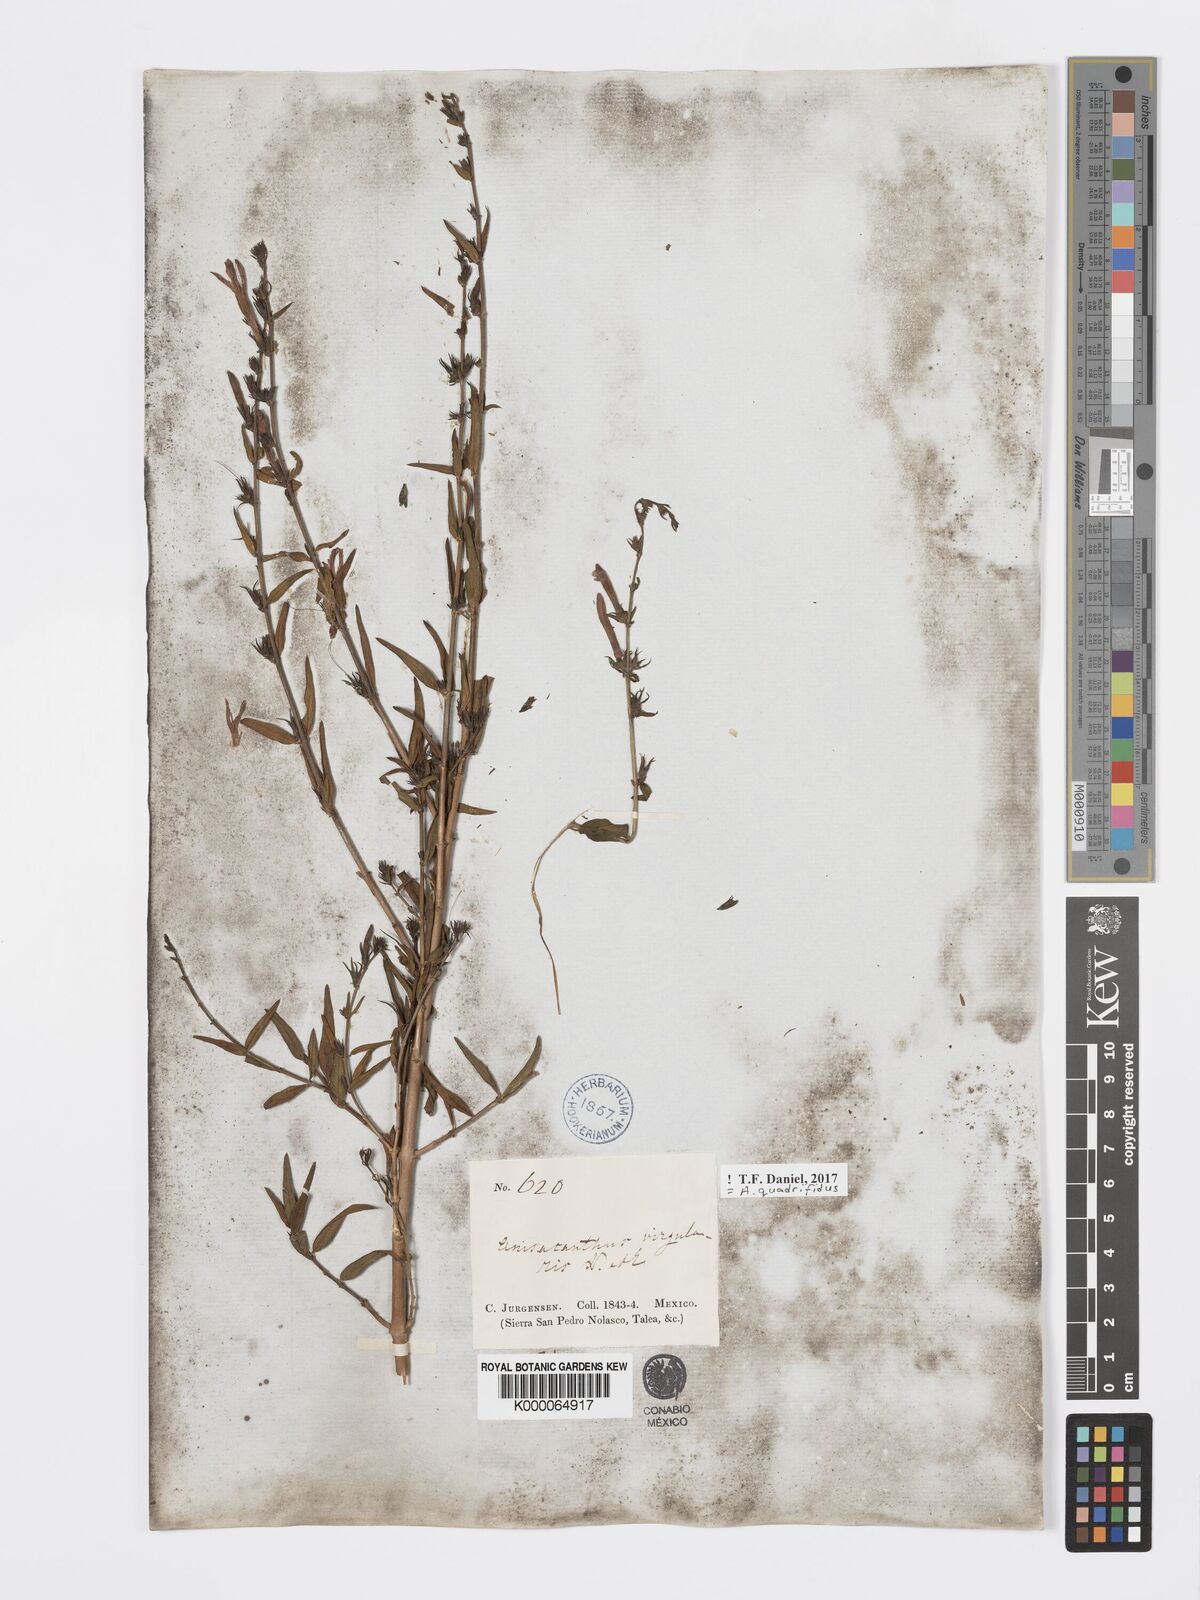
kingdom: Plantae
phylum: Tracheophyta
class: Magnoliopsida
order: Lamiales
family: Acanthaceae
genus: Anisacanthus
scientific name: Anisacanthus quadrifidus
